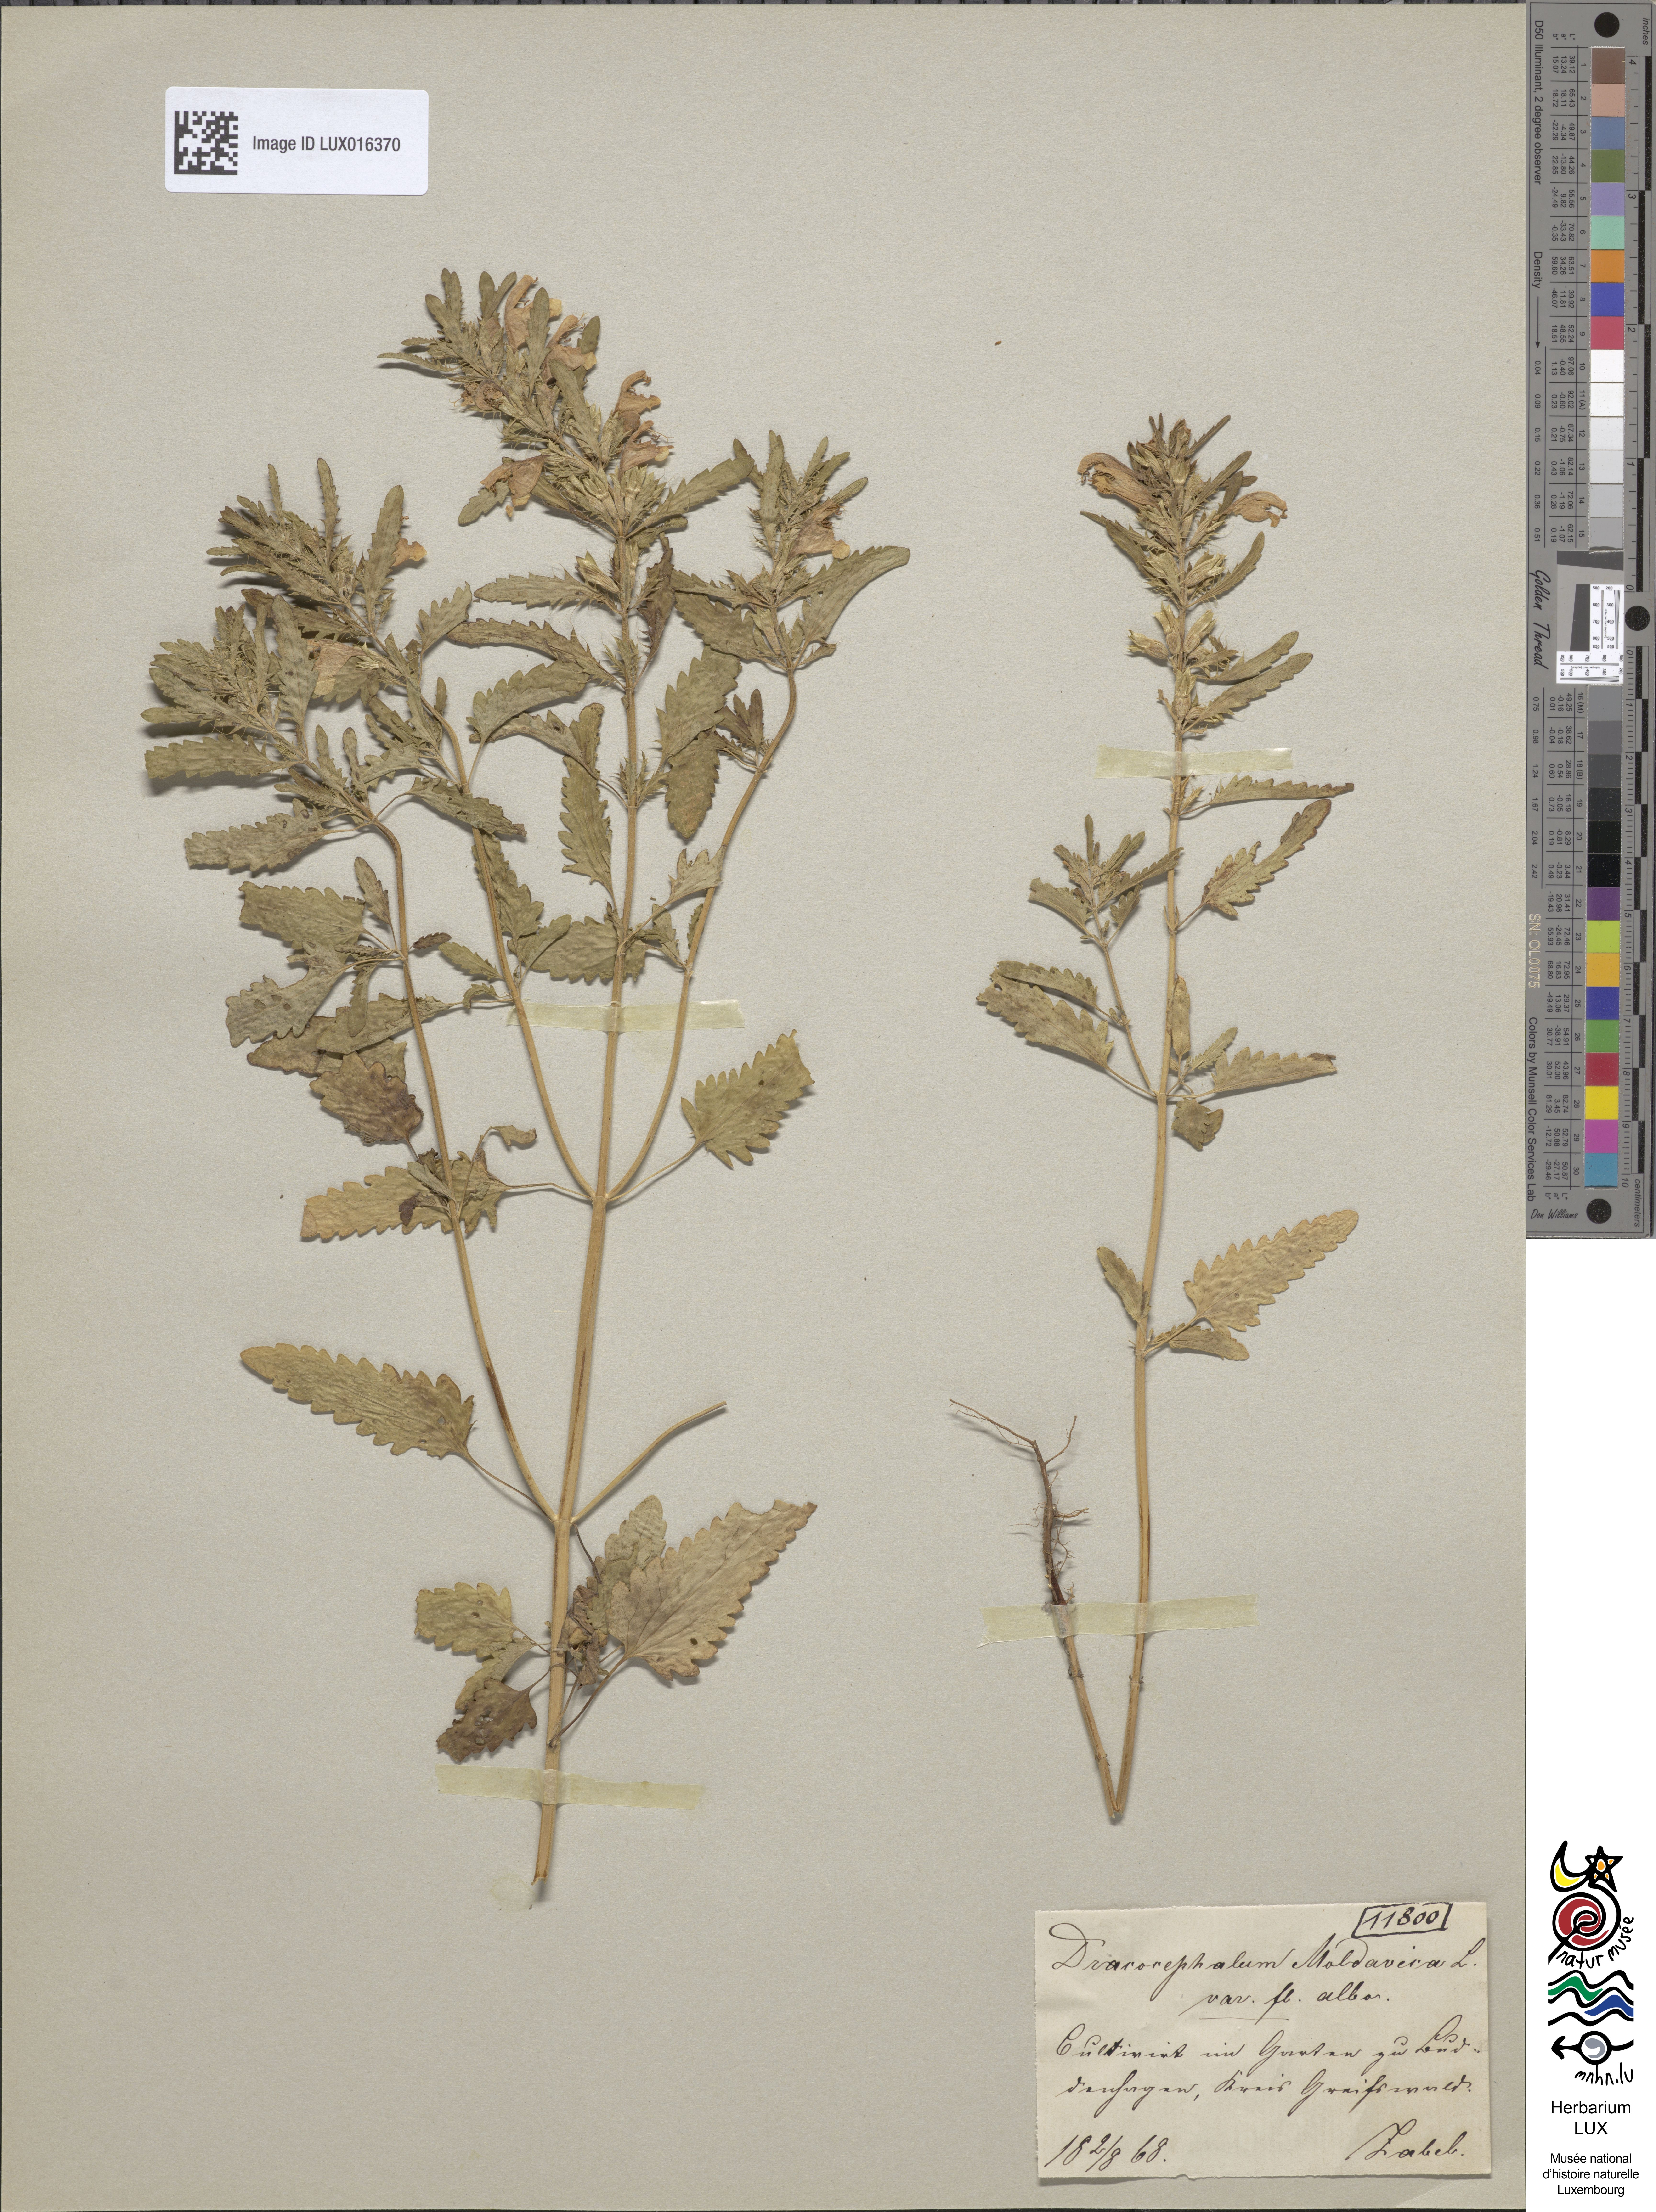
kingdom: Plantae
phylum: Tracheophyta
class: Magnoliopsida
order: Lamiales
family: Lamiaceae
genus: Dracocephalum
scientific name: Dracocephalum moldavica
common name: Moldavian dragonhead
